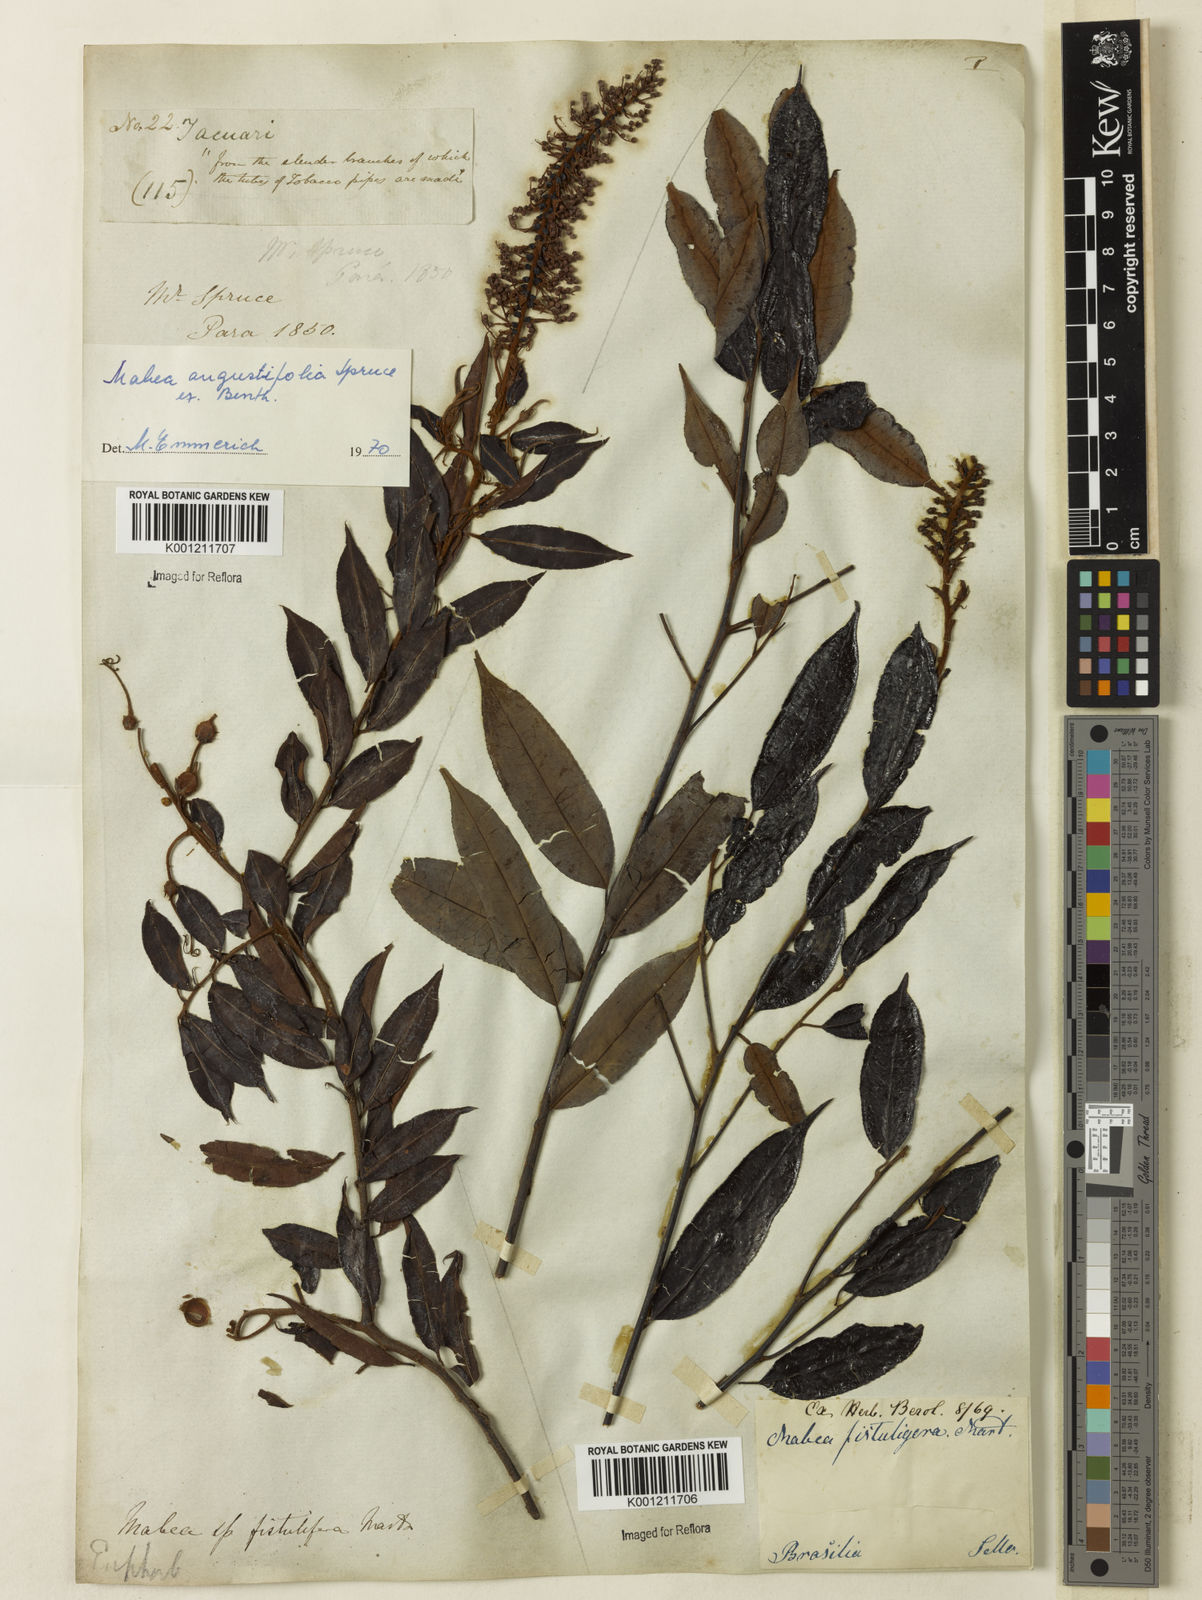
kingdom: Plantae
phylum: Tracheophyta
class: Magnoliopsida
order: Malpighiales
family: Euphorbiaceae
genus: Mabea
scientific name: Mabea fistulifera
